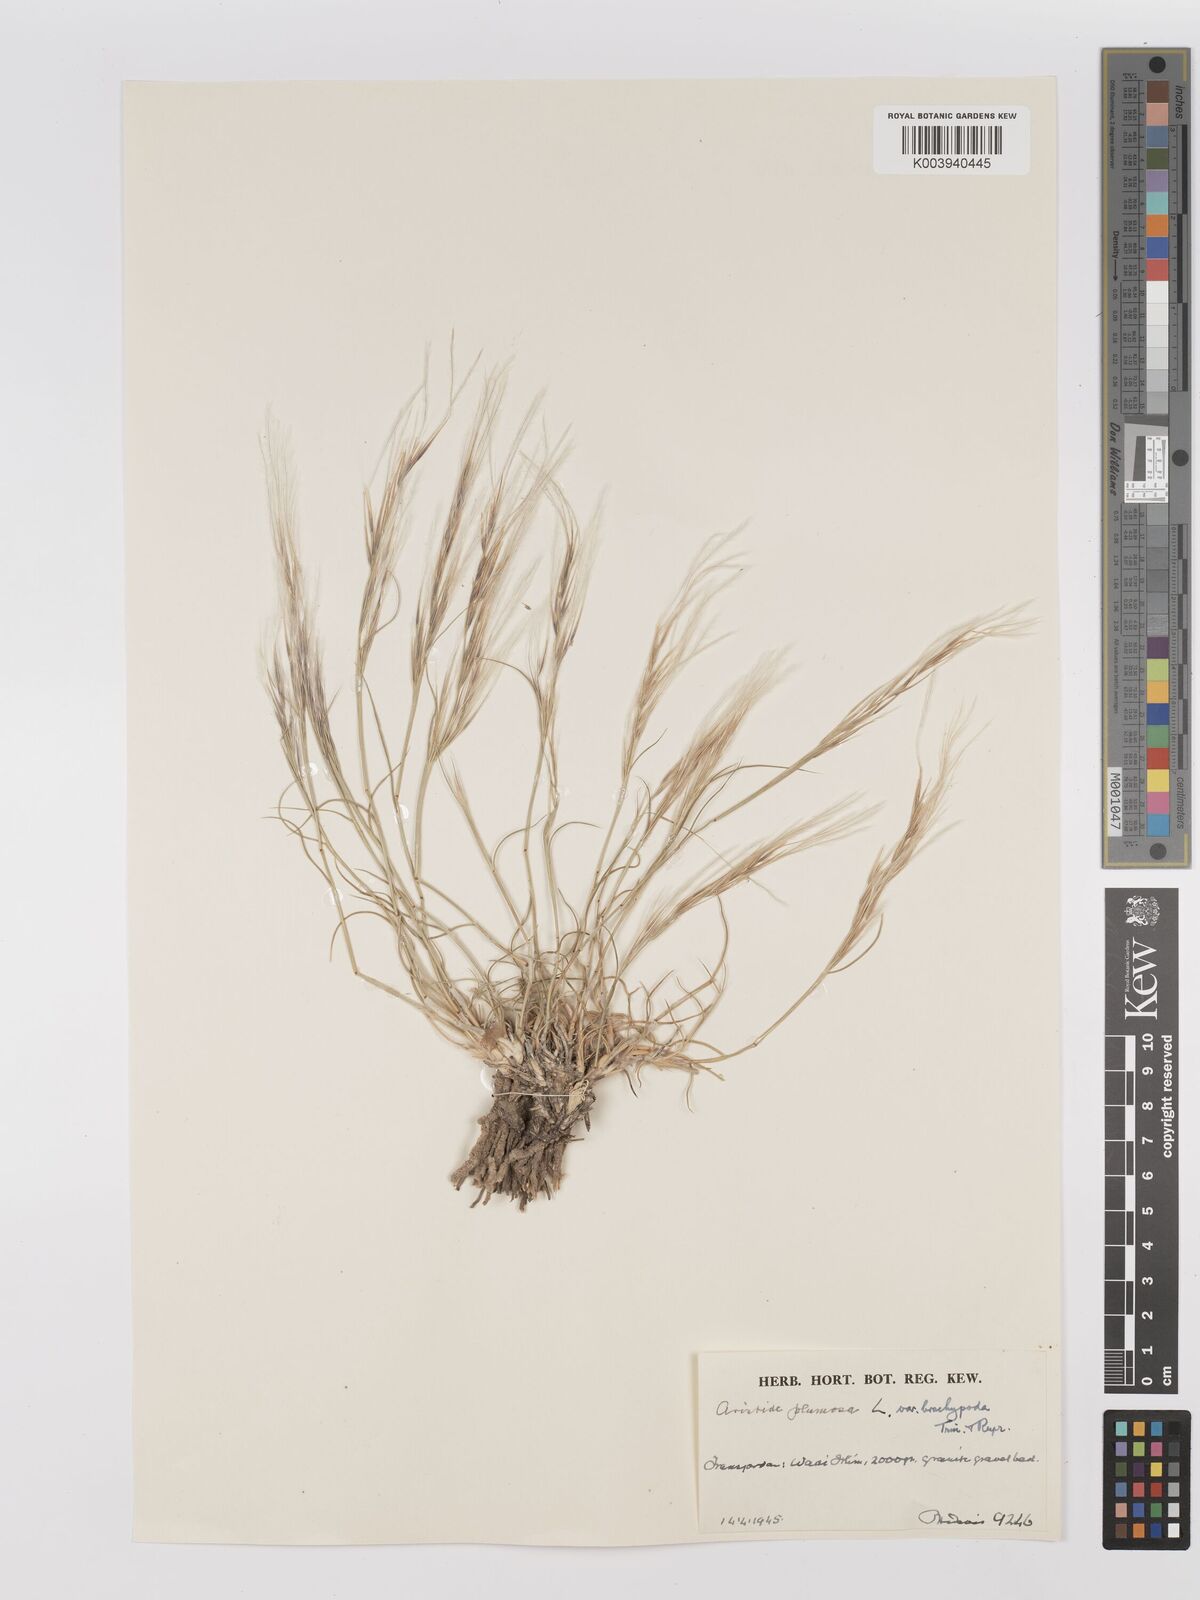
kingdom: Plantae
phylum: Tracheophyta
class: Liliopsida
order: Poales
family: Poaceae
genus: Stipagrostis
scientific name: Stipagrostis plumosa
